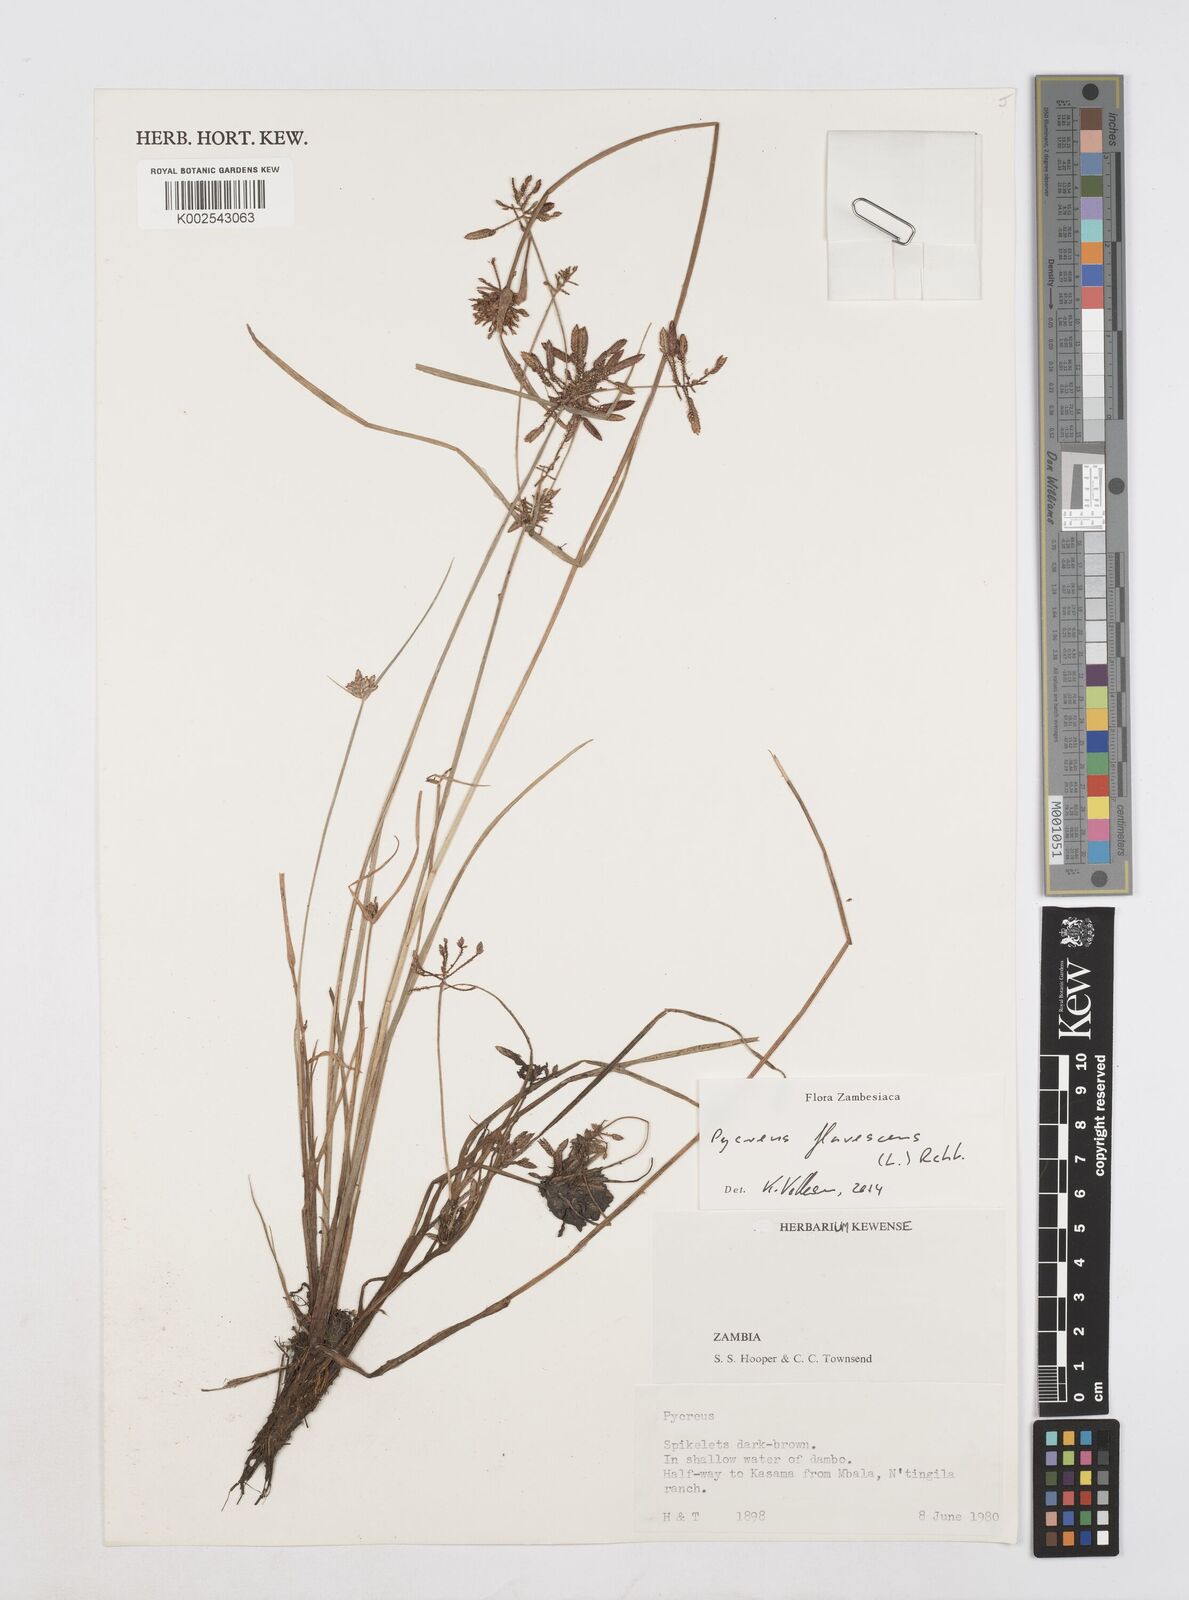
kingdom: Plantae
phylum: Tracheophyta
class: Liliopsida
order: Poales
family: Cyperaceae
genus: Cyperus
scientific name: Cyperus flavescens
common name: Yellow galingale
